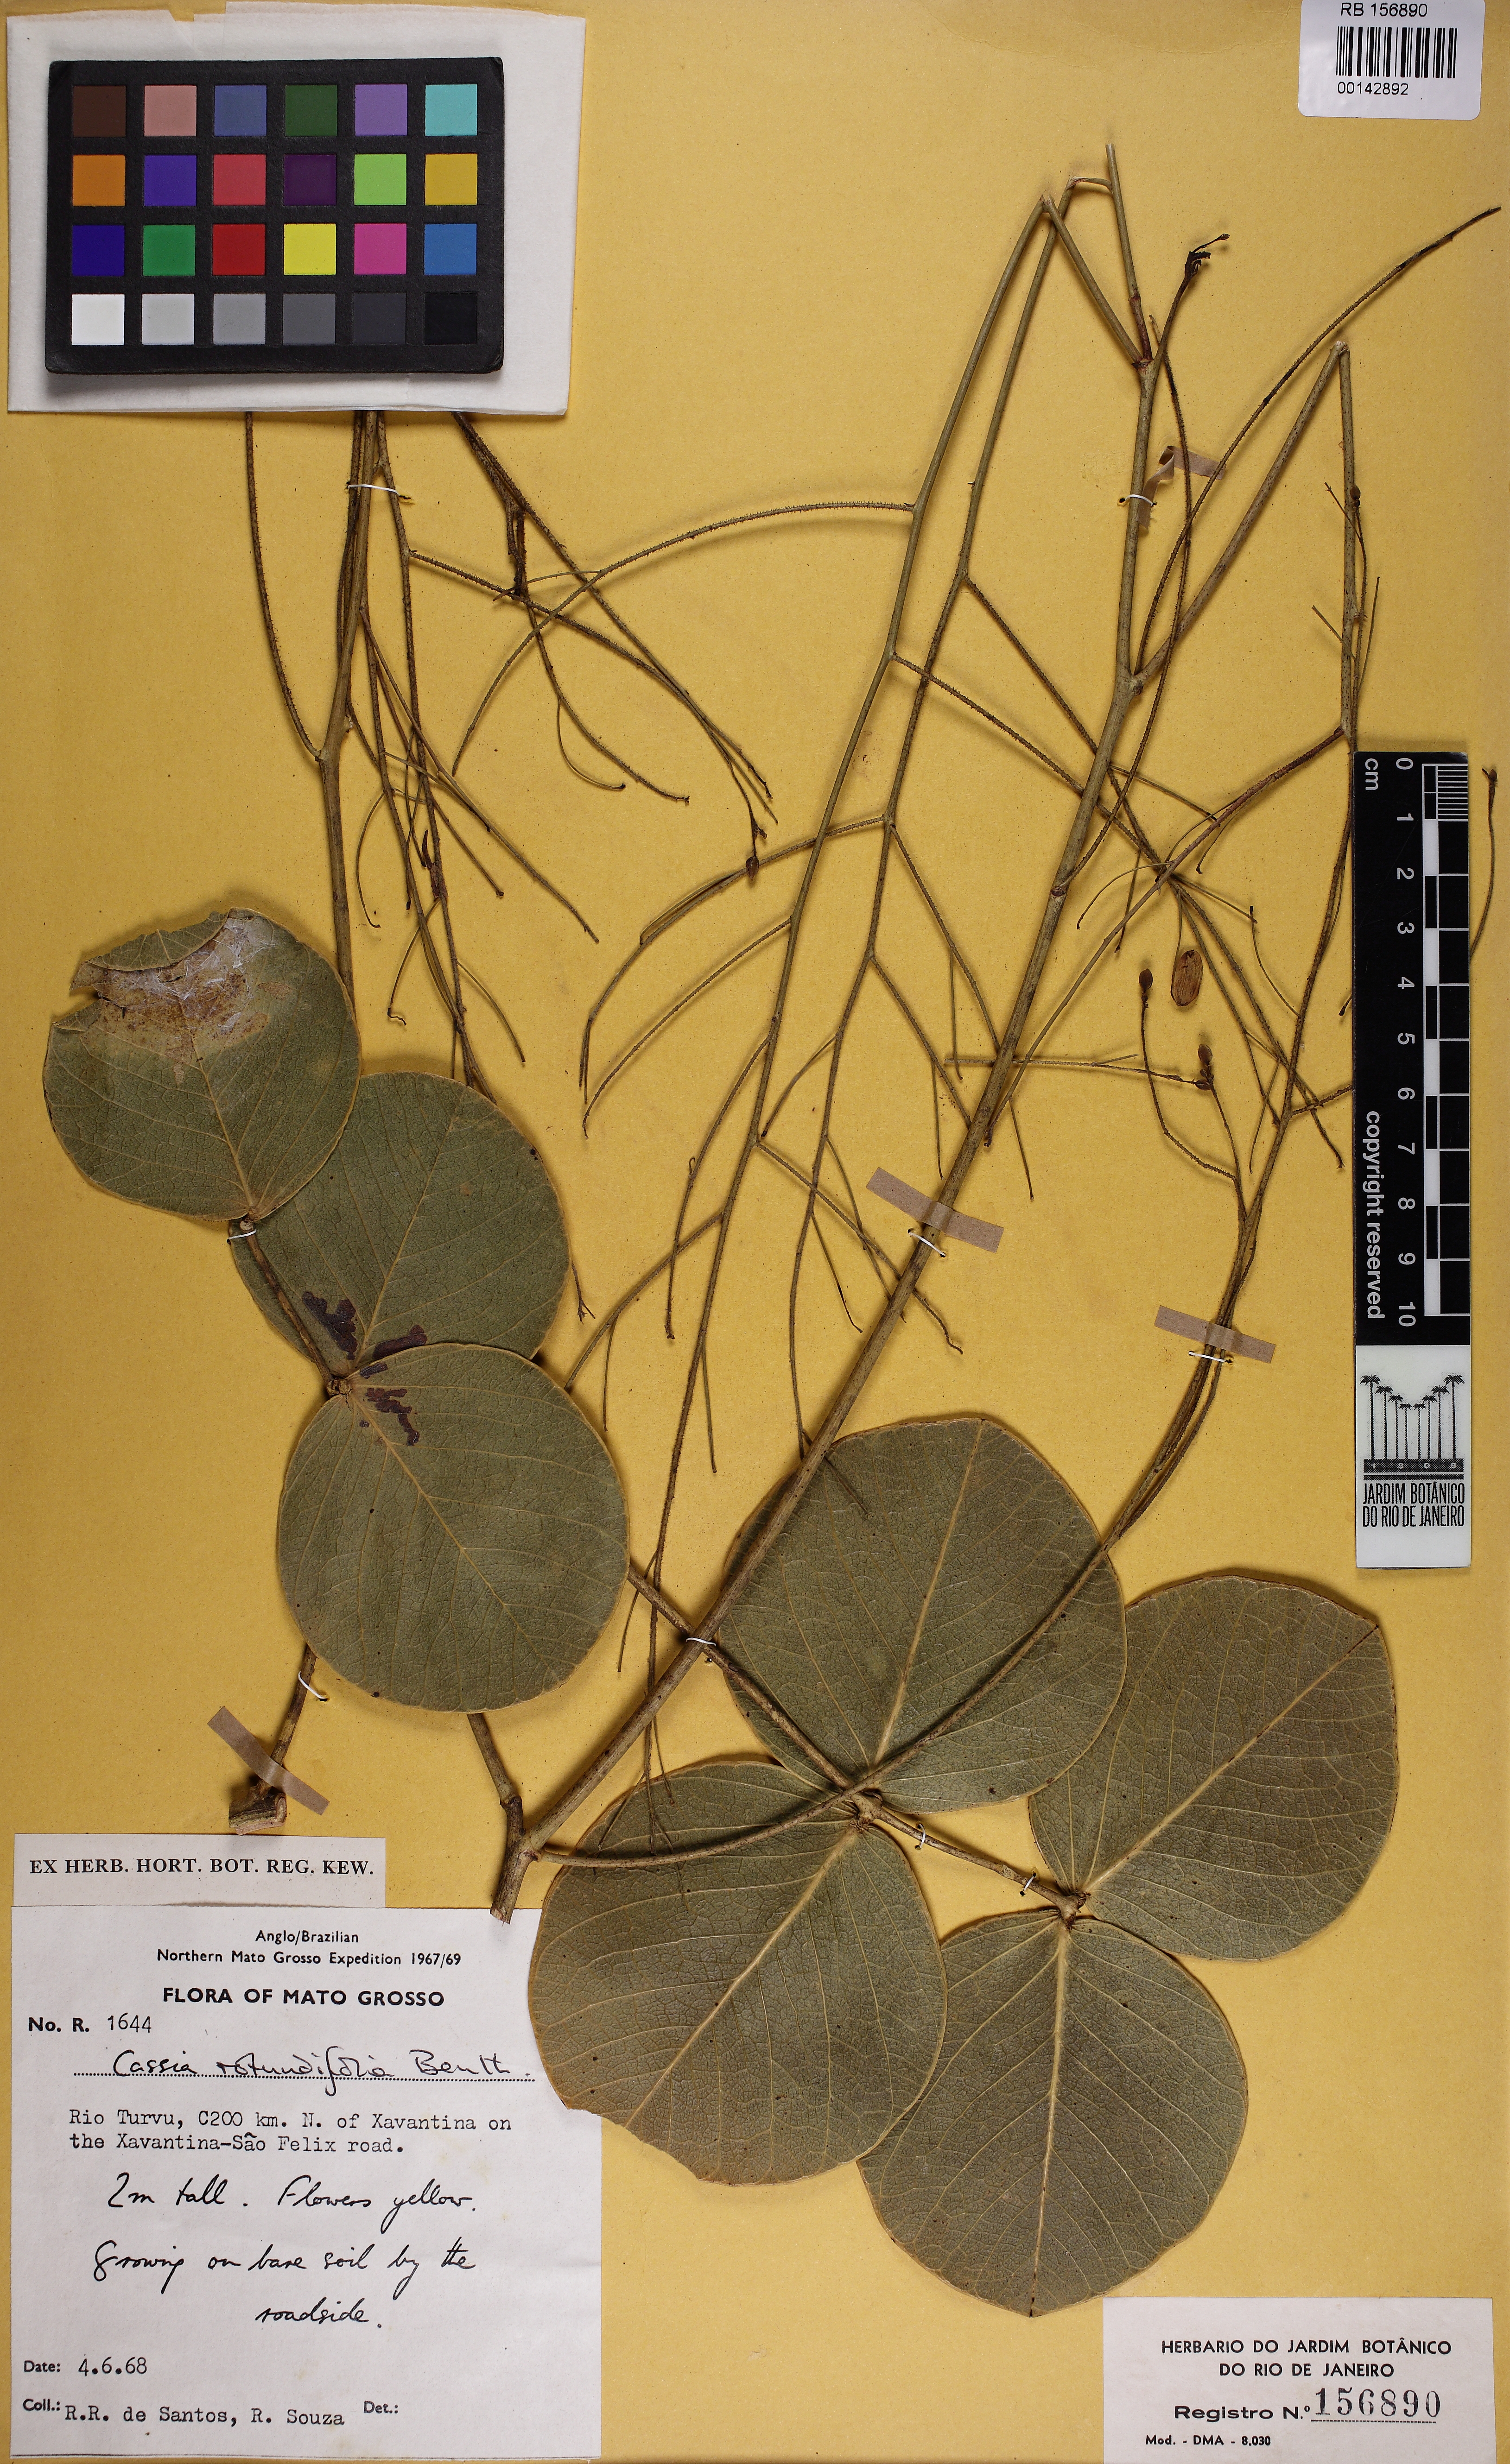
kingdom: Plantae
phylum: Tracheophyta
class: Magnoliopsida
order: Fabales
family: Fabaceae
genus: Chamaecrista
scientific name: Chamaecrista rotundifolia
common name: Round-leaf cassia
